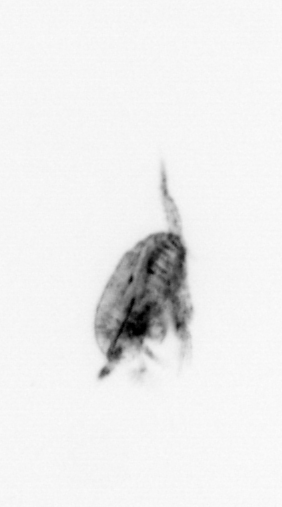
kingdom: Animalia
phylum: Arthropoda
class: Copepoda
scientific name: Copepoda
